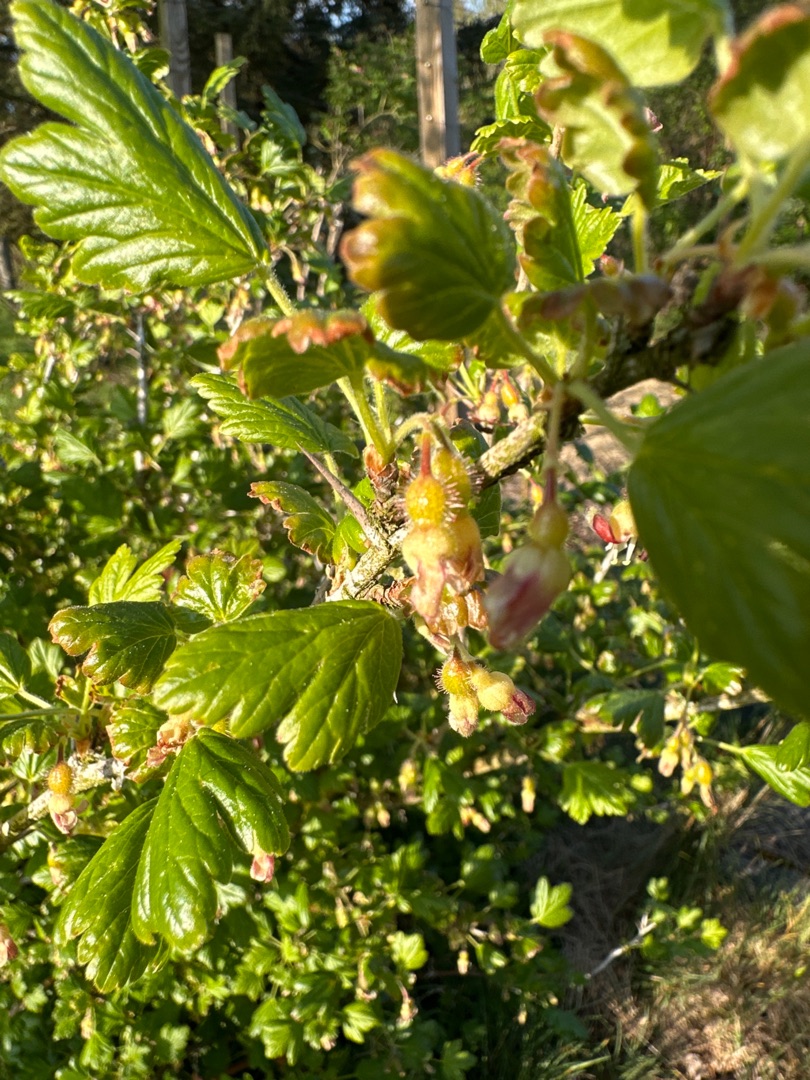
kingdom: Plantae
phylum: Tracheophyta
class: Magnoliopsida
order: Saxifragales
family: Grossulariaceae
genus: Ribes
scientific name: Ribes uva-crispa
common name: Stikkelsbær
